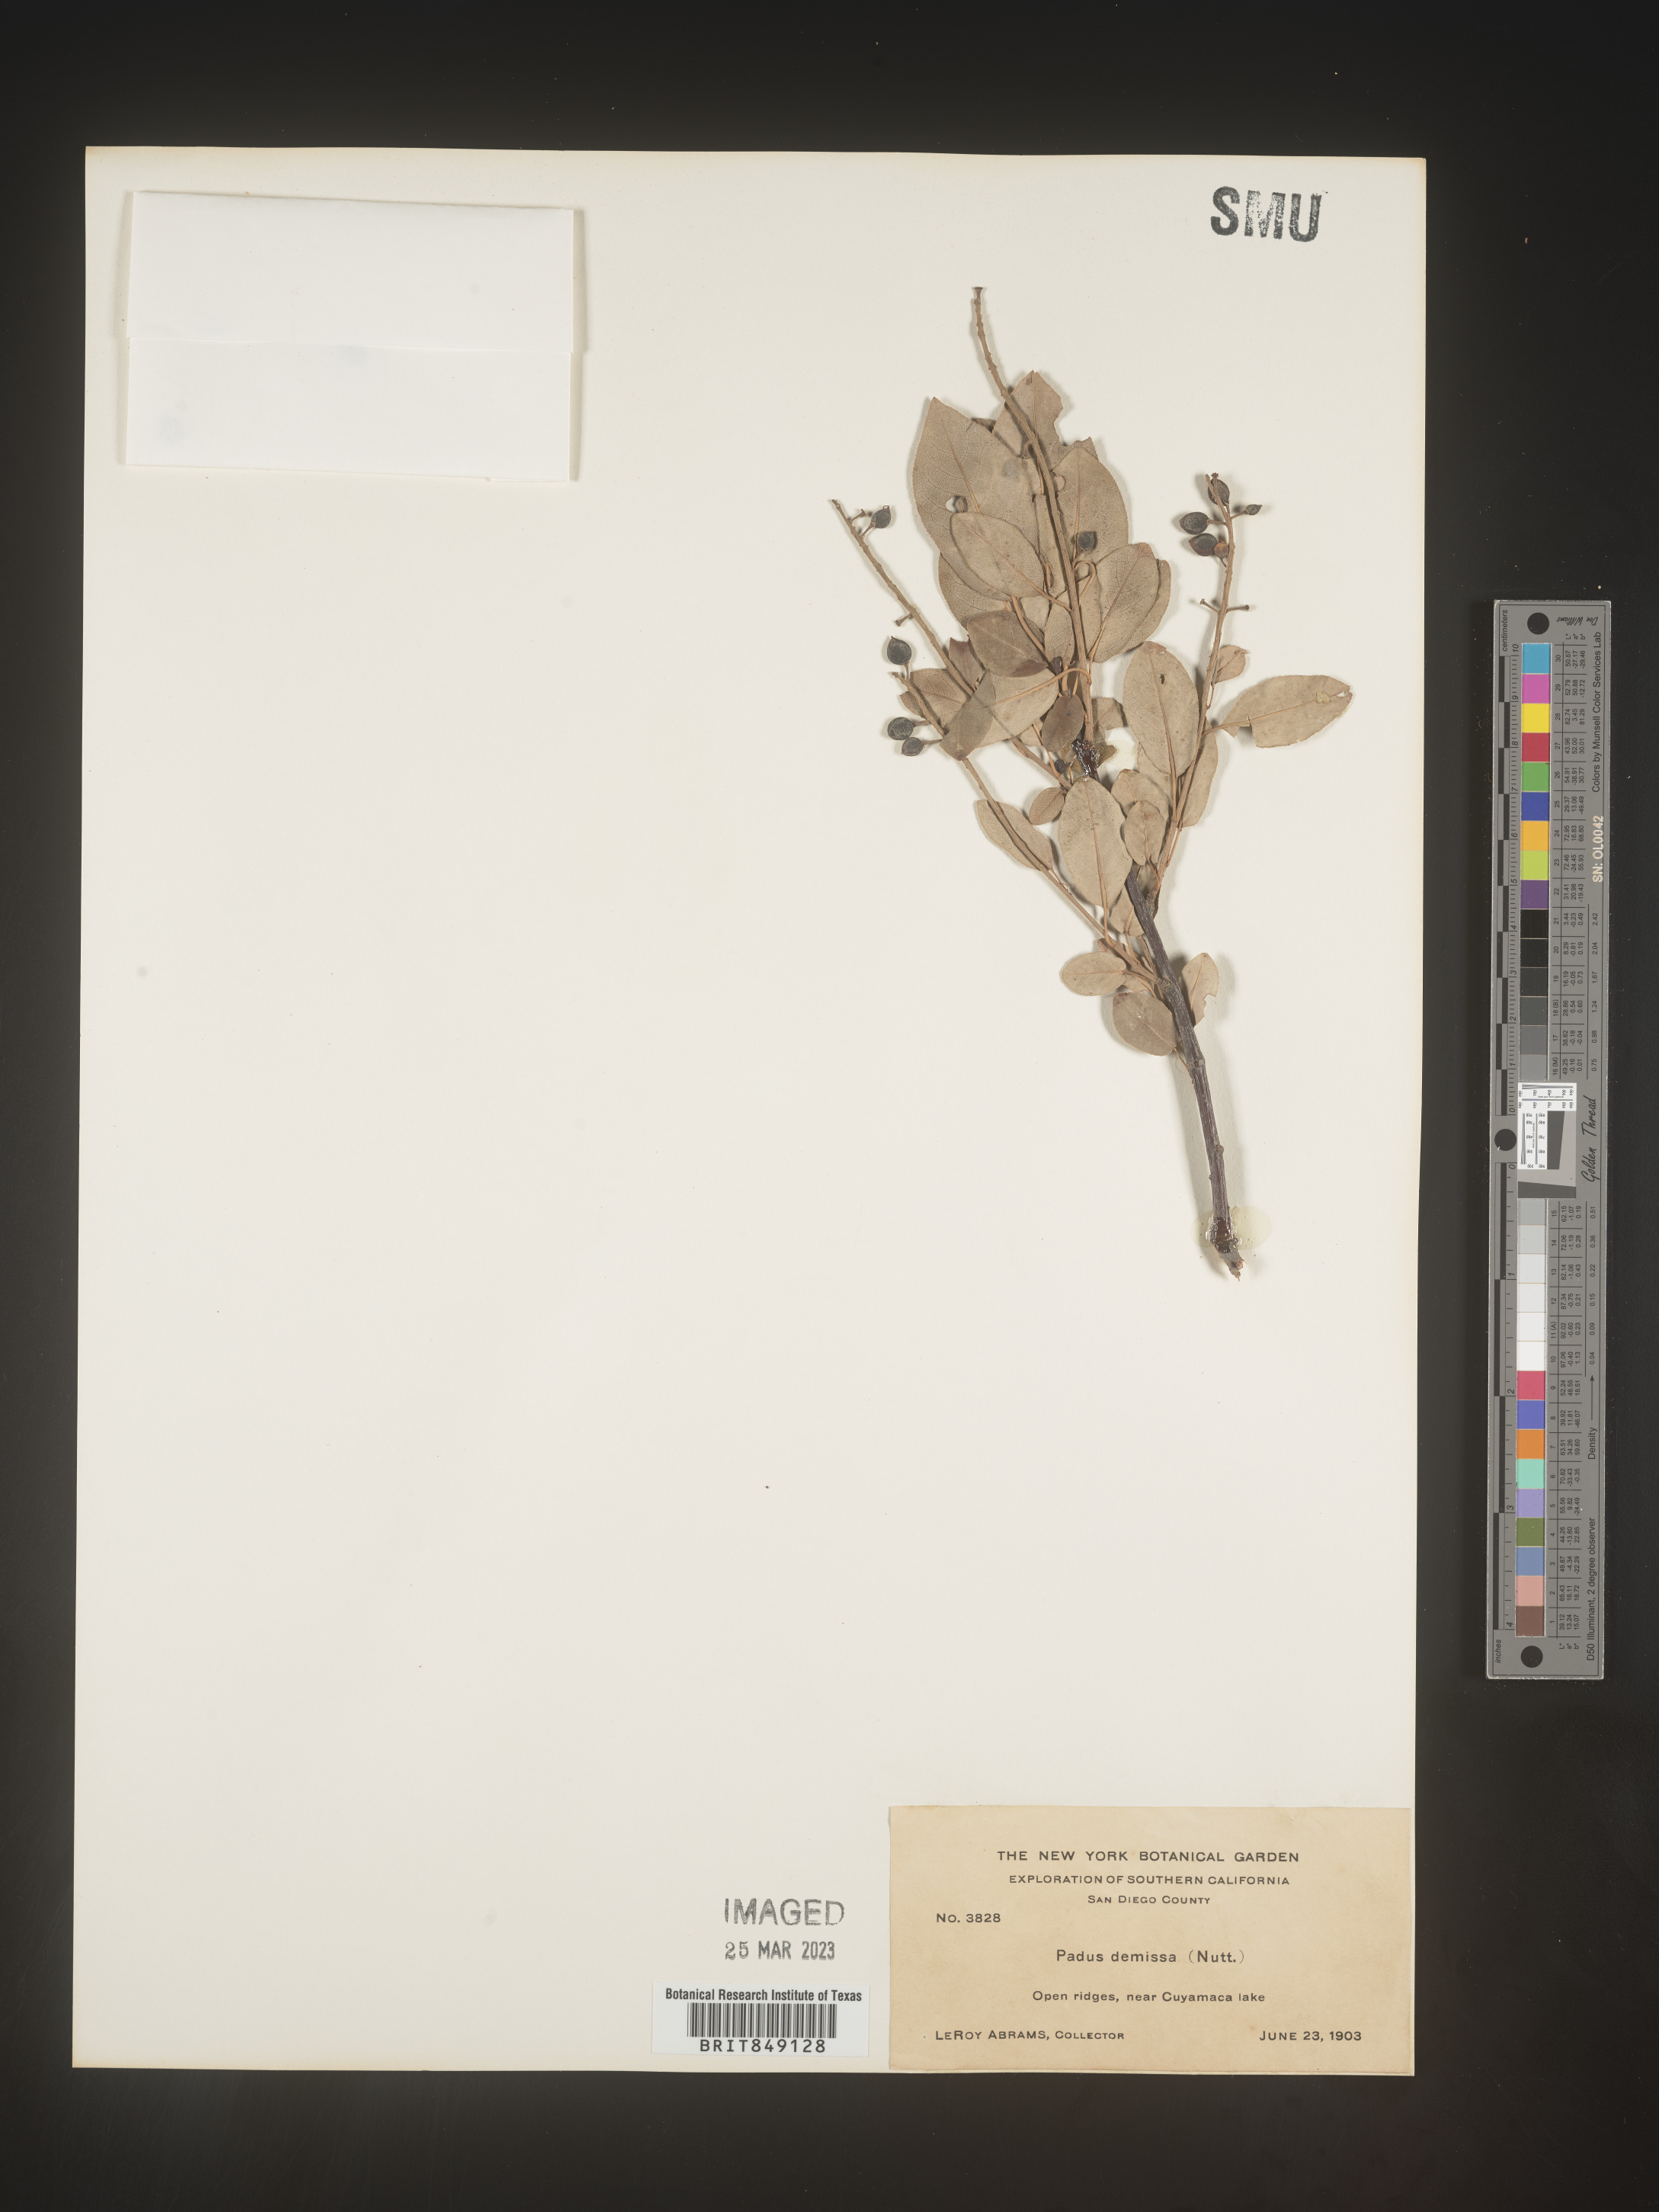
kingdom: Plantae
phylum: Tracheophyta
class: Magnoliopsida
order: Rosales
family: Rosaceae
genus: Prunus
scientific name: Prunus
